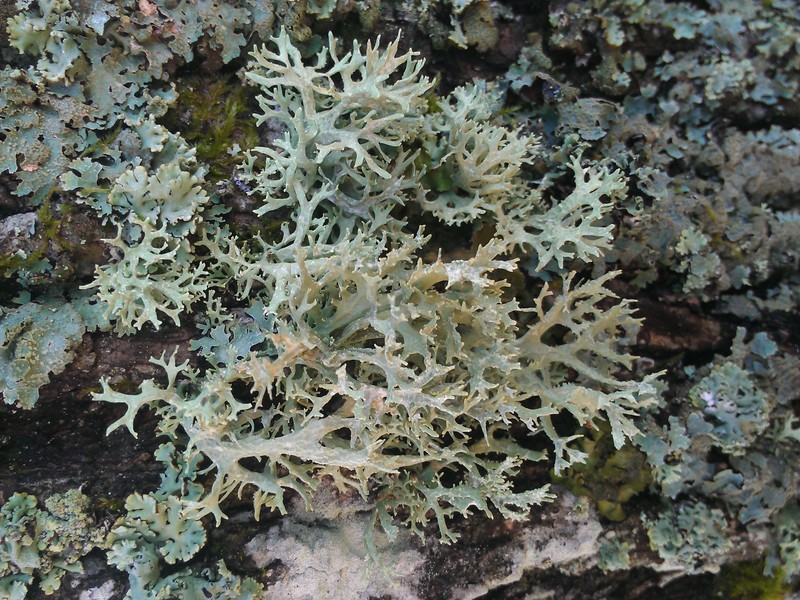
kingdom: Fungi
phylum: Ascomycota
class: Lecanoromycetes
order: Lecanorales
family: Parmeliaceae
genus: Evernia
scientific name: Evernia prunastri
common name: Oak moss
